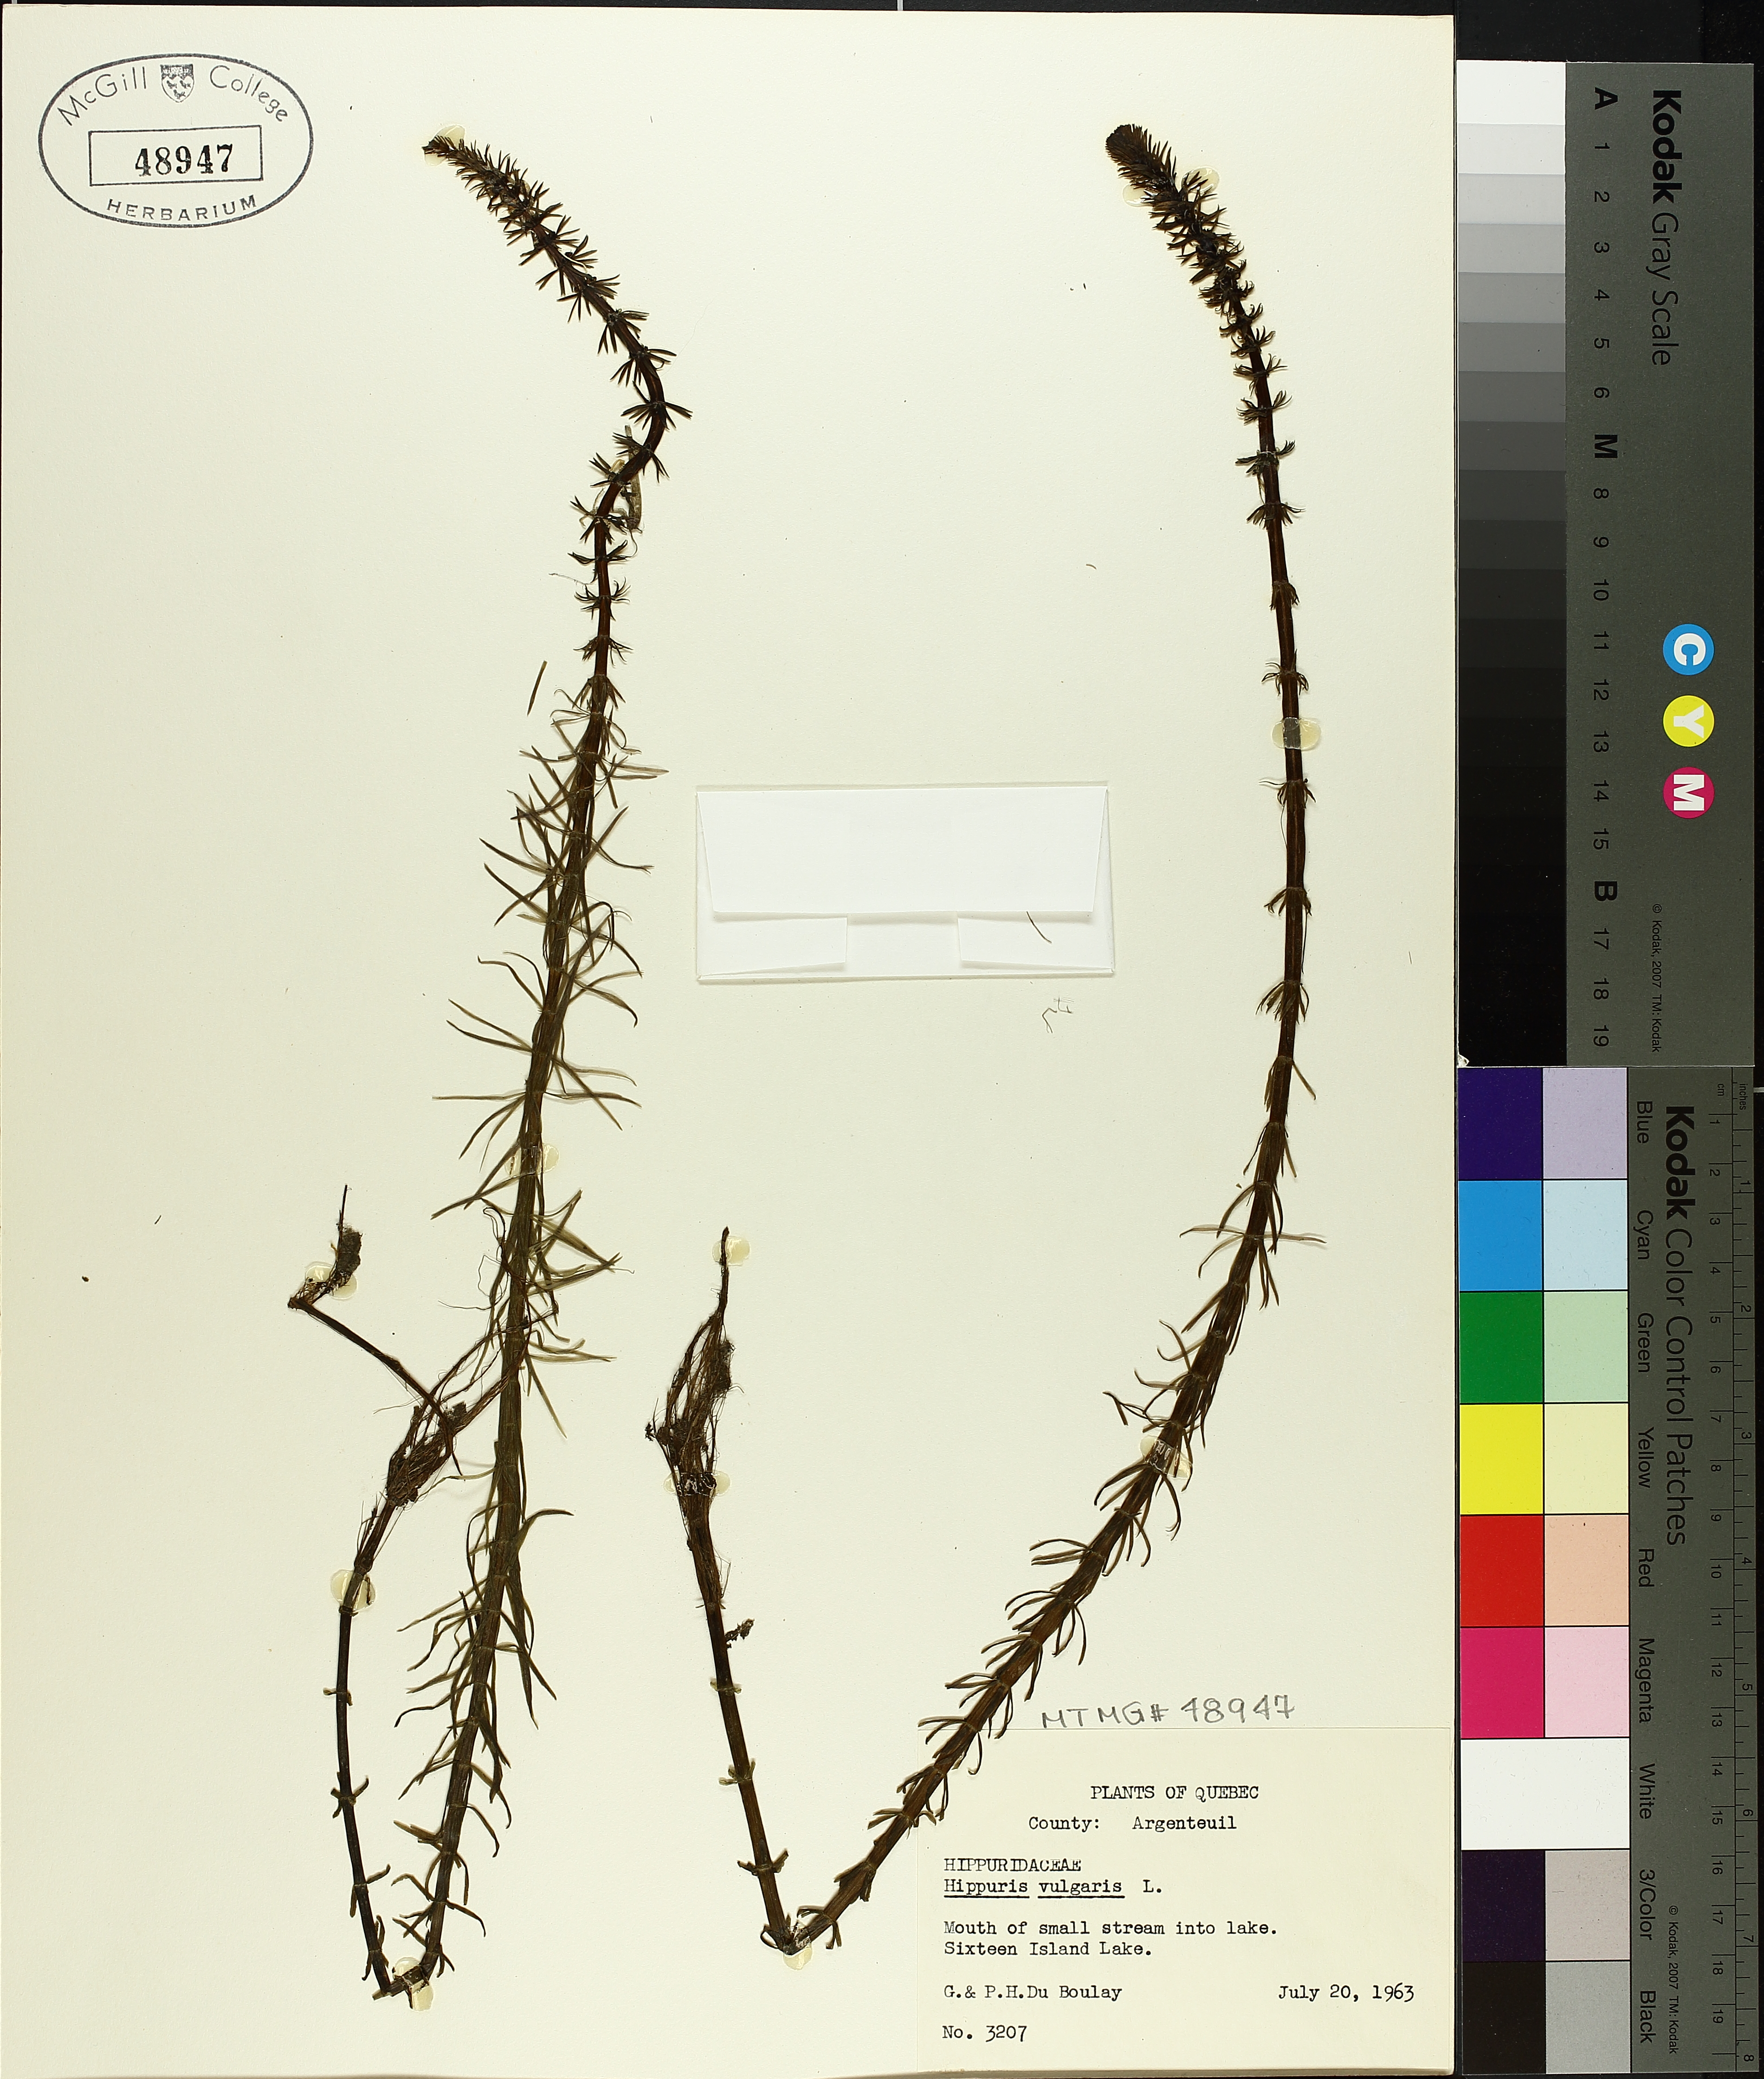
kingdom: Plantae
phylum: Tracheophyta
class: Magnoliopsida
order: Lamiales
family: Plantaginaceae
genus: Hippuris
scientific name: Hippuris vulgaris
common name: Mare's-tail
